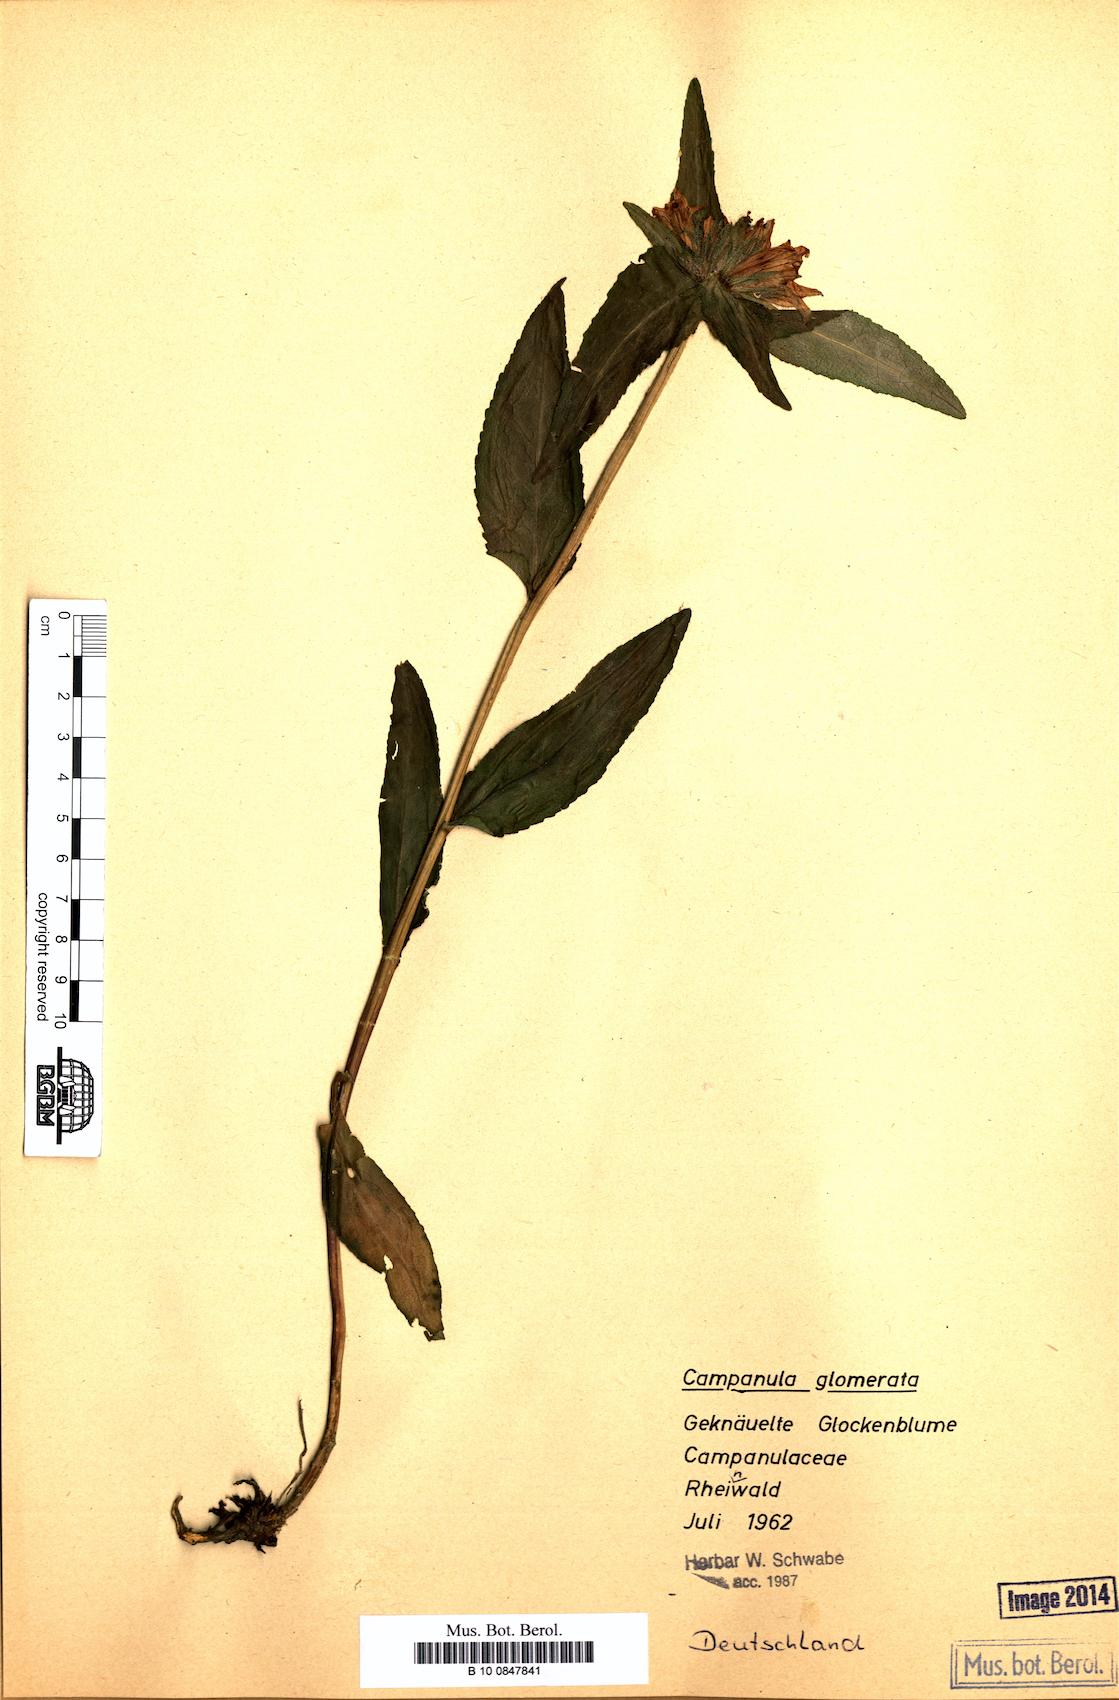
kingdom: Plantae
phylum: Tracheophyta
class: Magnoliopsida
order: Asterales
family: Campanulaceae
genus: Campanula
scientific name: Campanula glomerata
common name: Clustered bellflower
